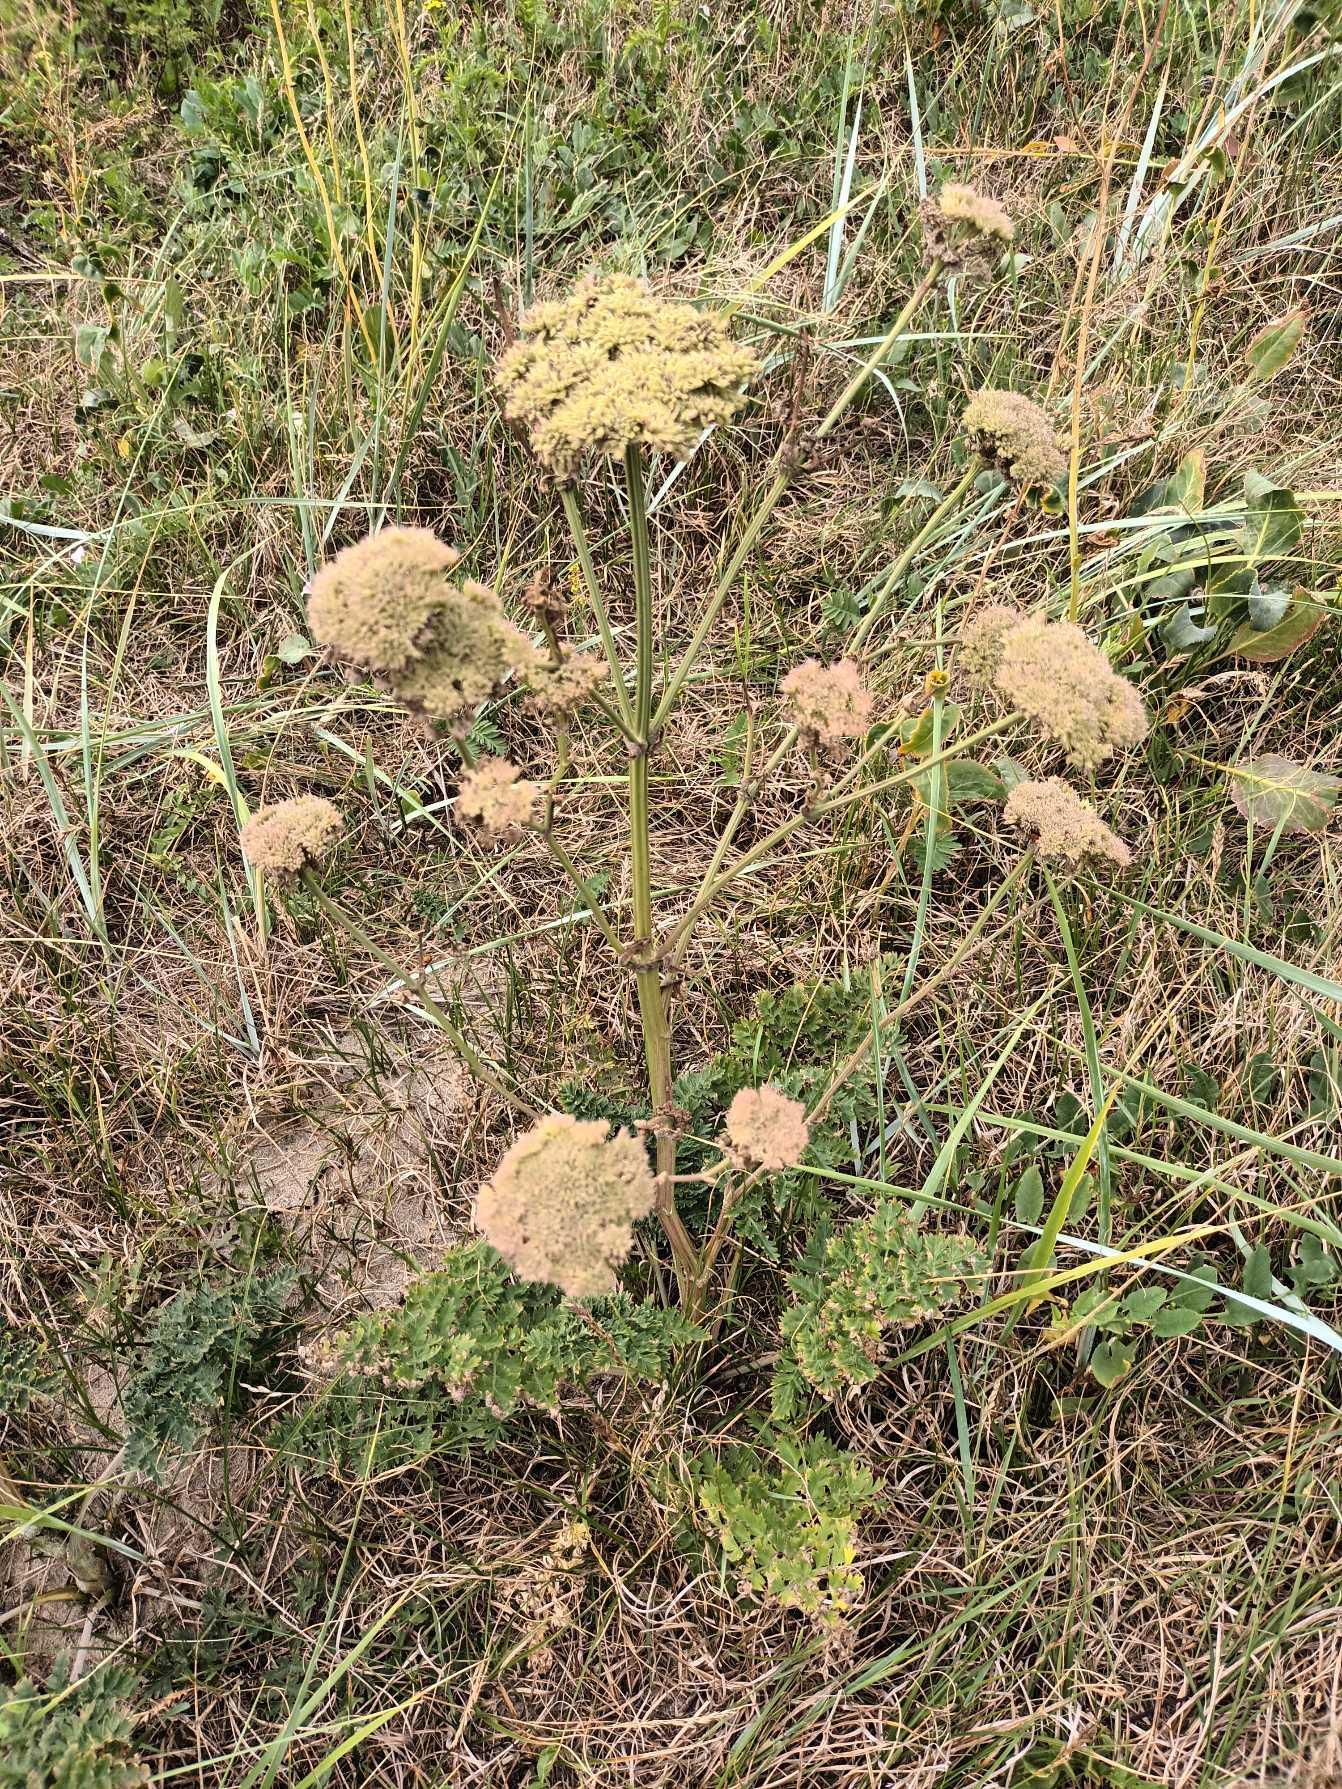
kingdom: Plantae
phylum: Tracheophyta
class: Magnoliopsida
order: Apiales
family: Apiaceae
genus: Seseli
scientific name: Seseli libanotis
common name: Hjorterod
